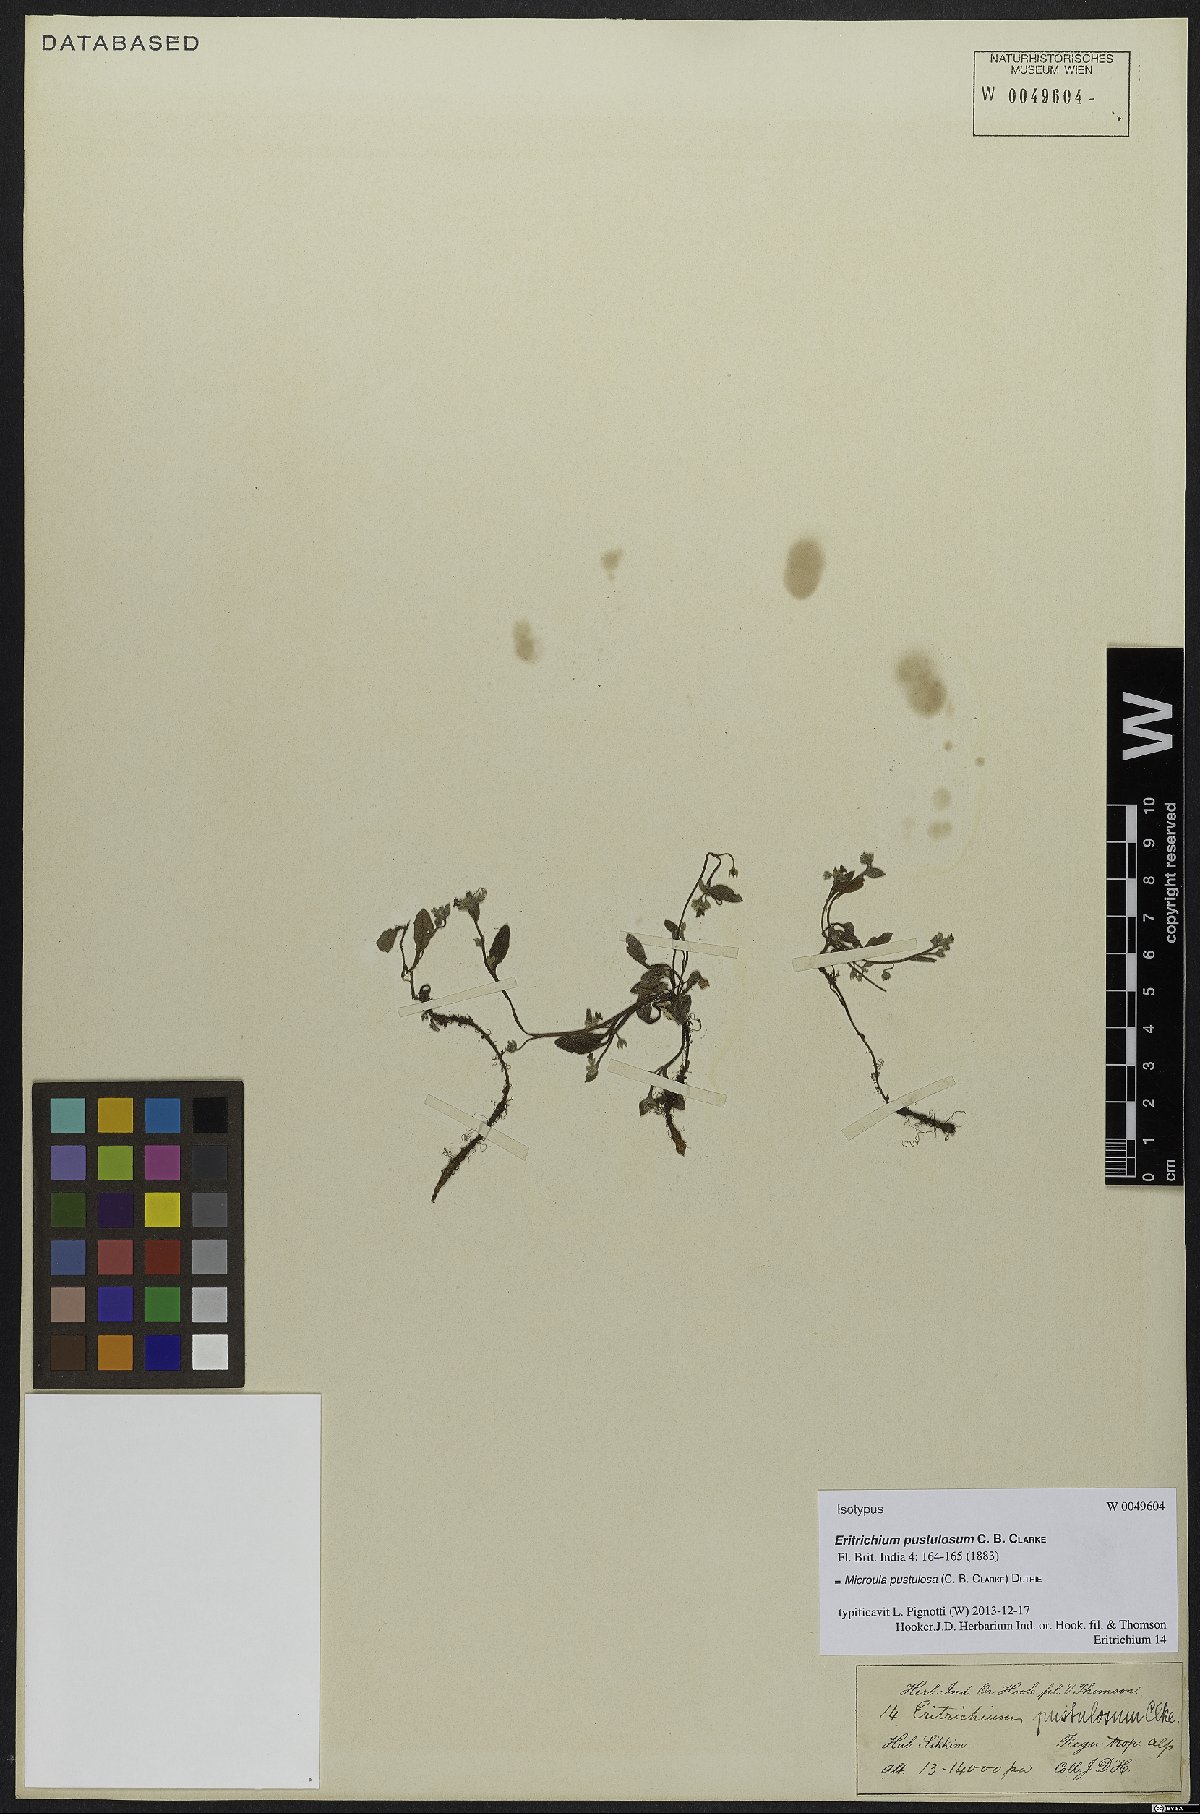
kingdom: Plantae
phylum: Tracheophyta
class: Magnoliopsida
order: Boraginales
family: Boraginaceae
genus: Microula
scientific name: Microula pustulosa
